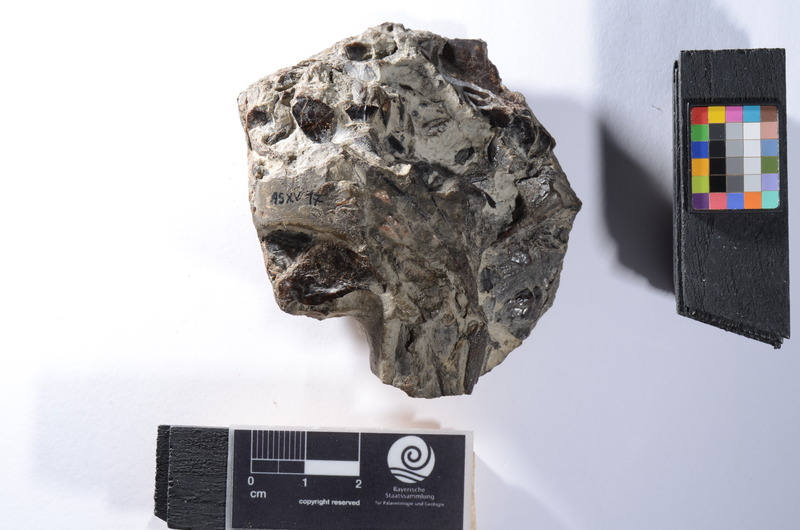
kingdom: Animalia
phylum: Chordata
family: Dapediidae
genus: Dapedium
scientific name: Dapedium
